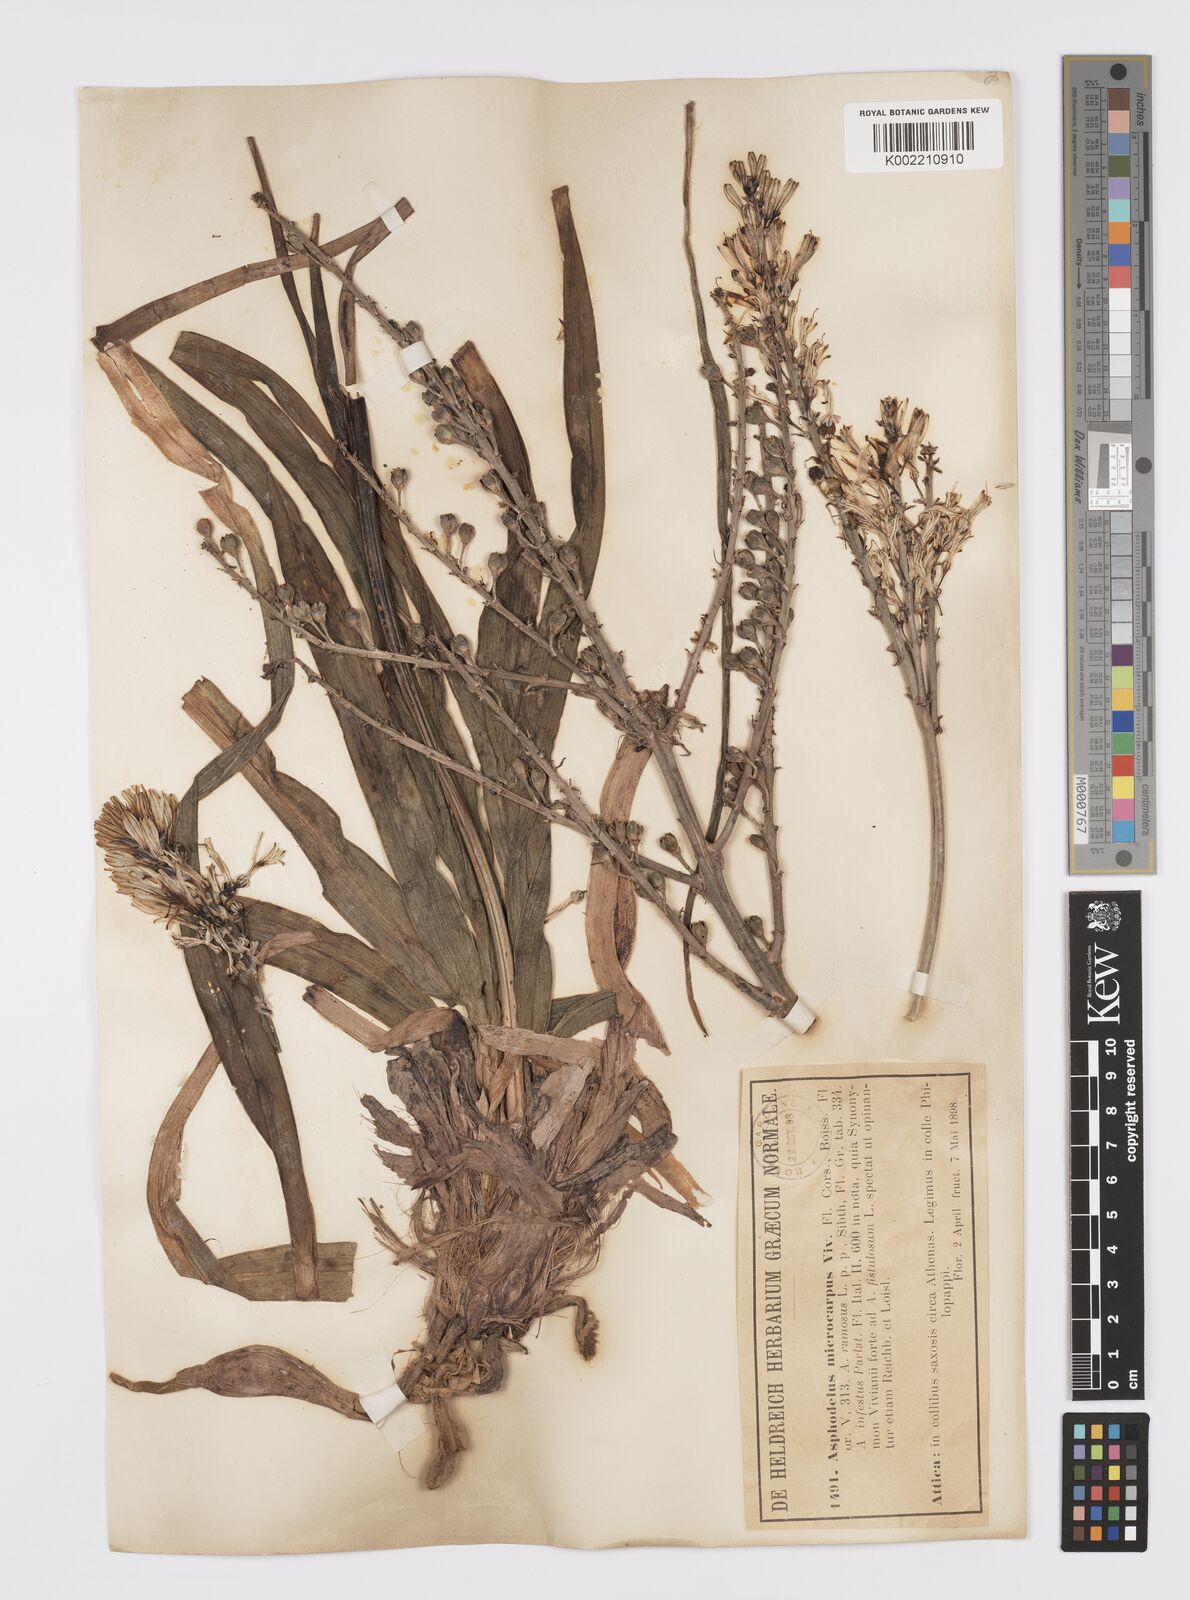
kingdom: Plantae
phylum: Tracheophyta
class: Liliopsida
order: Asparagales
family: Asphodelaceae
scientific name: Asphodelaceae
